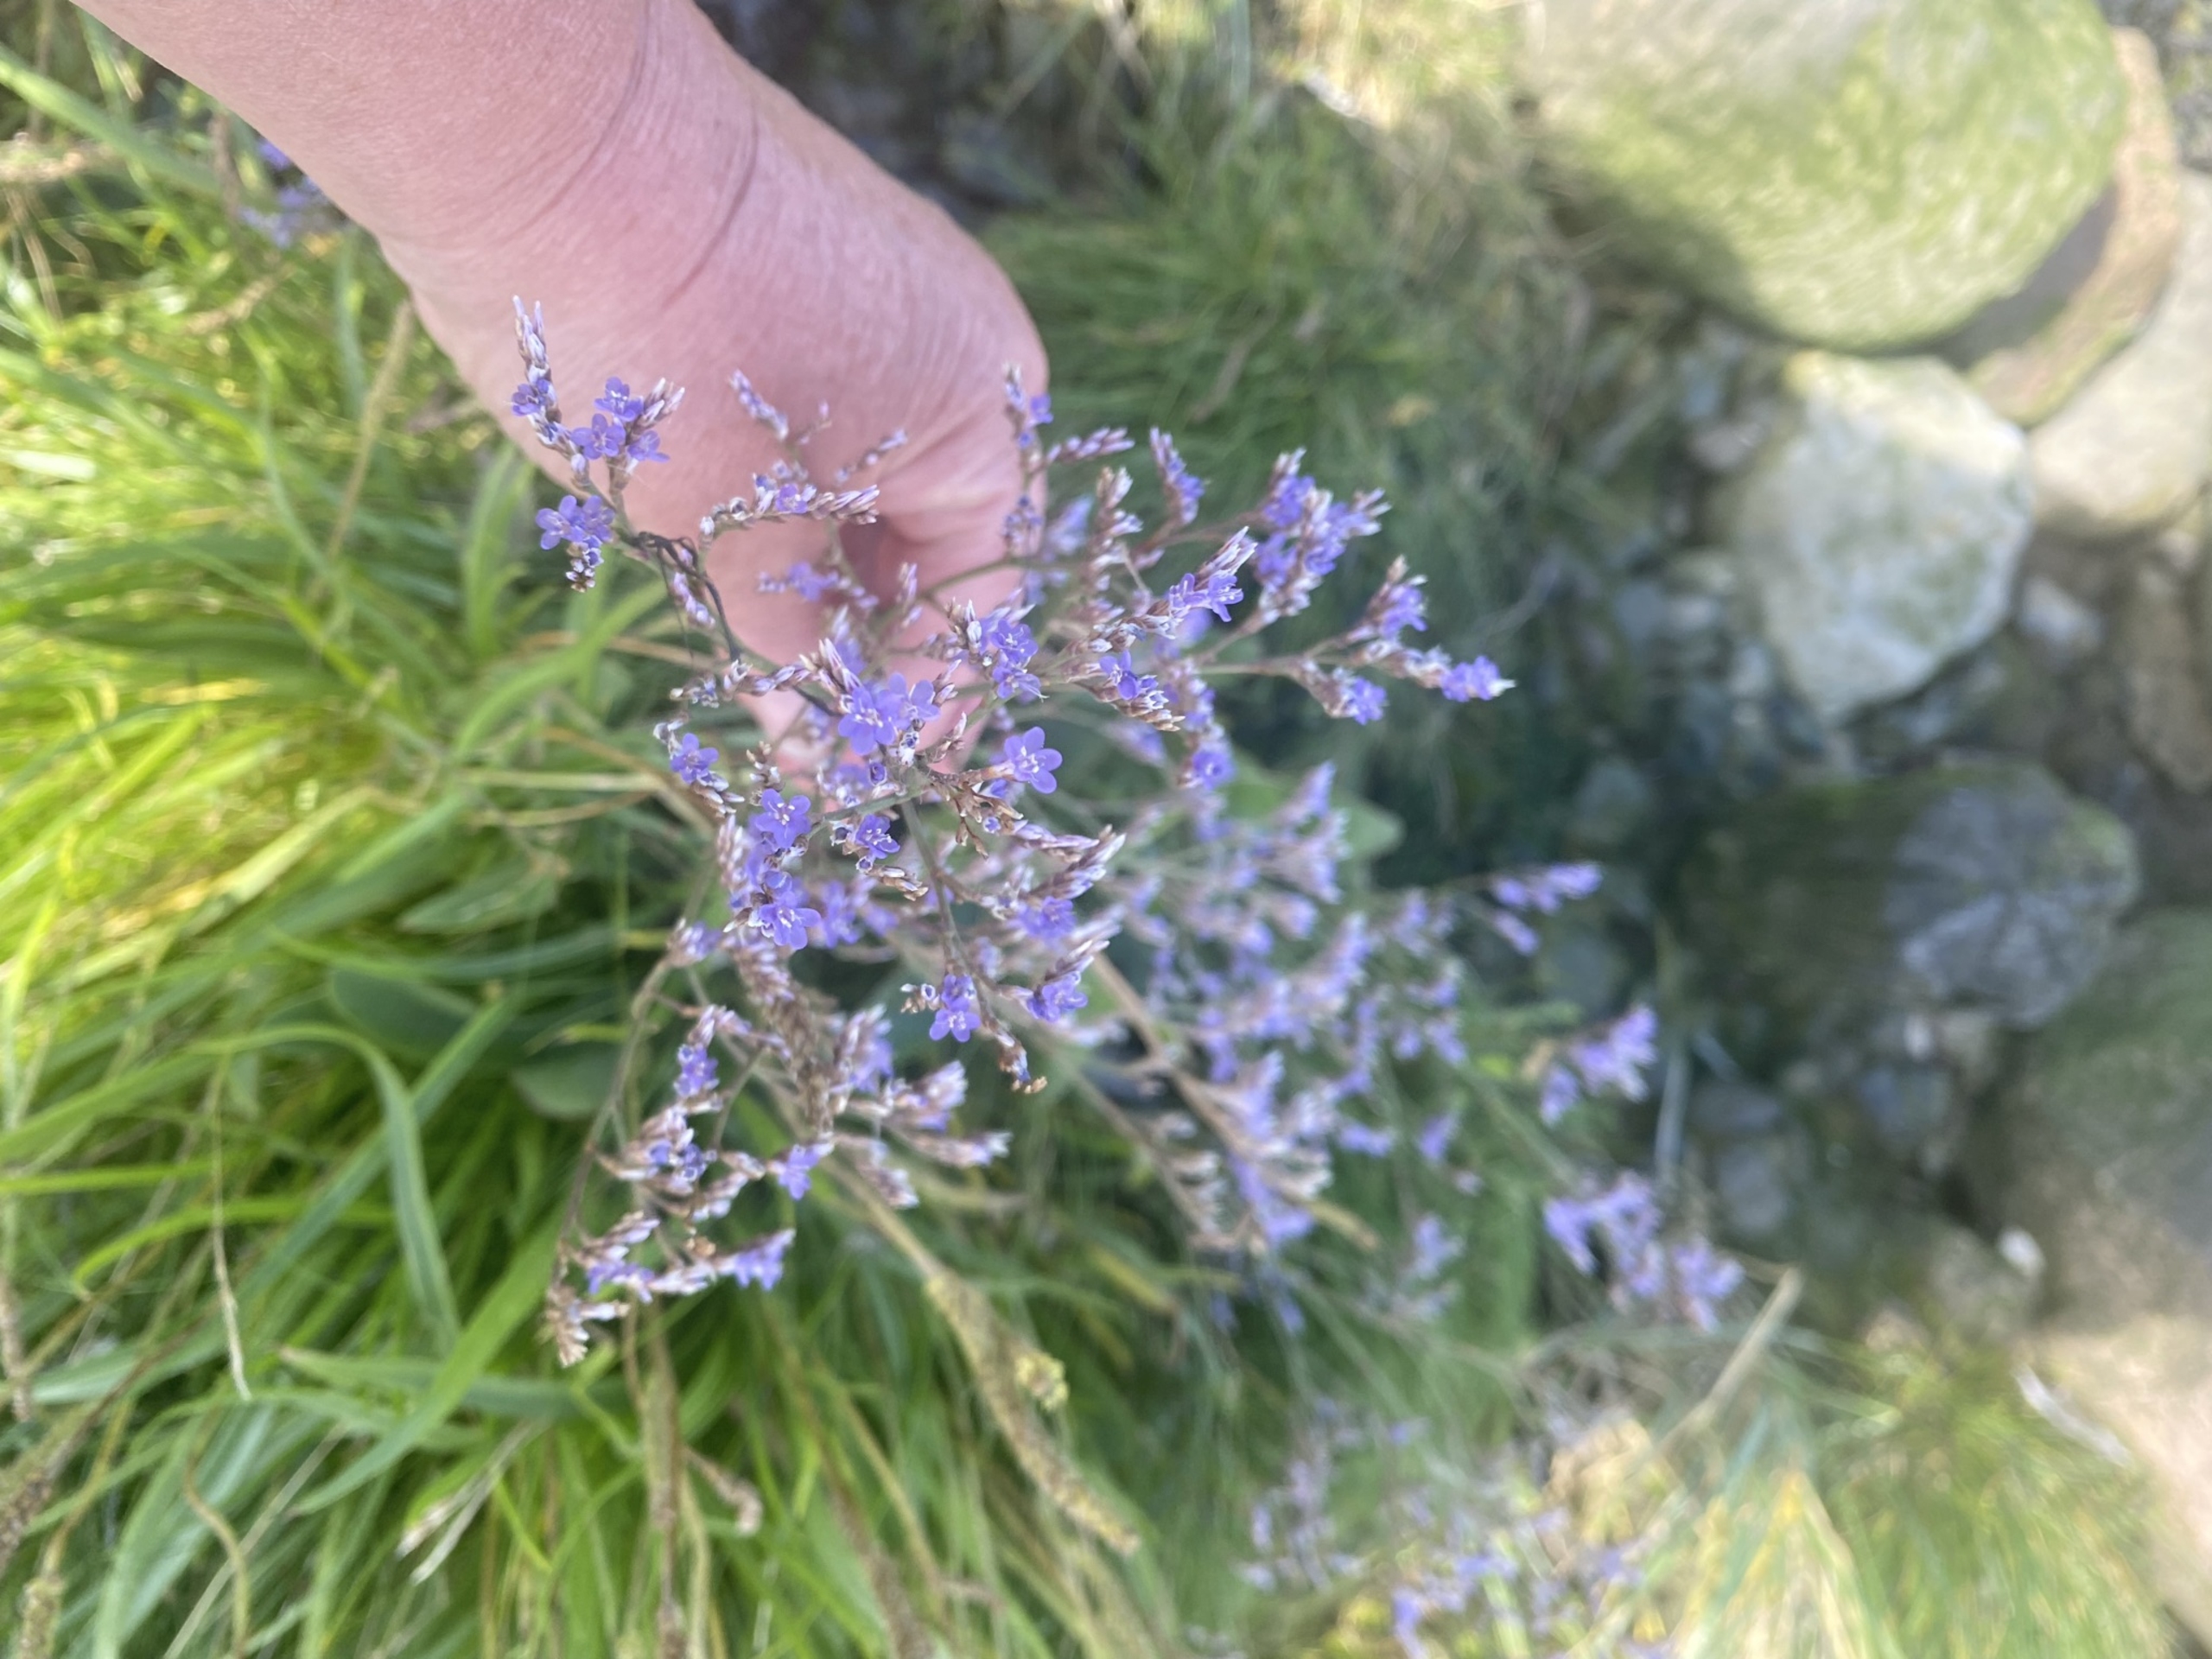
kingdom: Plantae
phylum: Tracheophyta
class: Magnoliopsida
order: Caryophyllales
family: Plumbaginaceae
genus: Limonium
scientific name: Limonium vulgare
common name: Tætblomstret hindebæger
